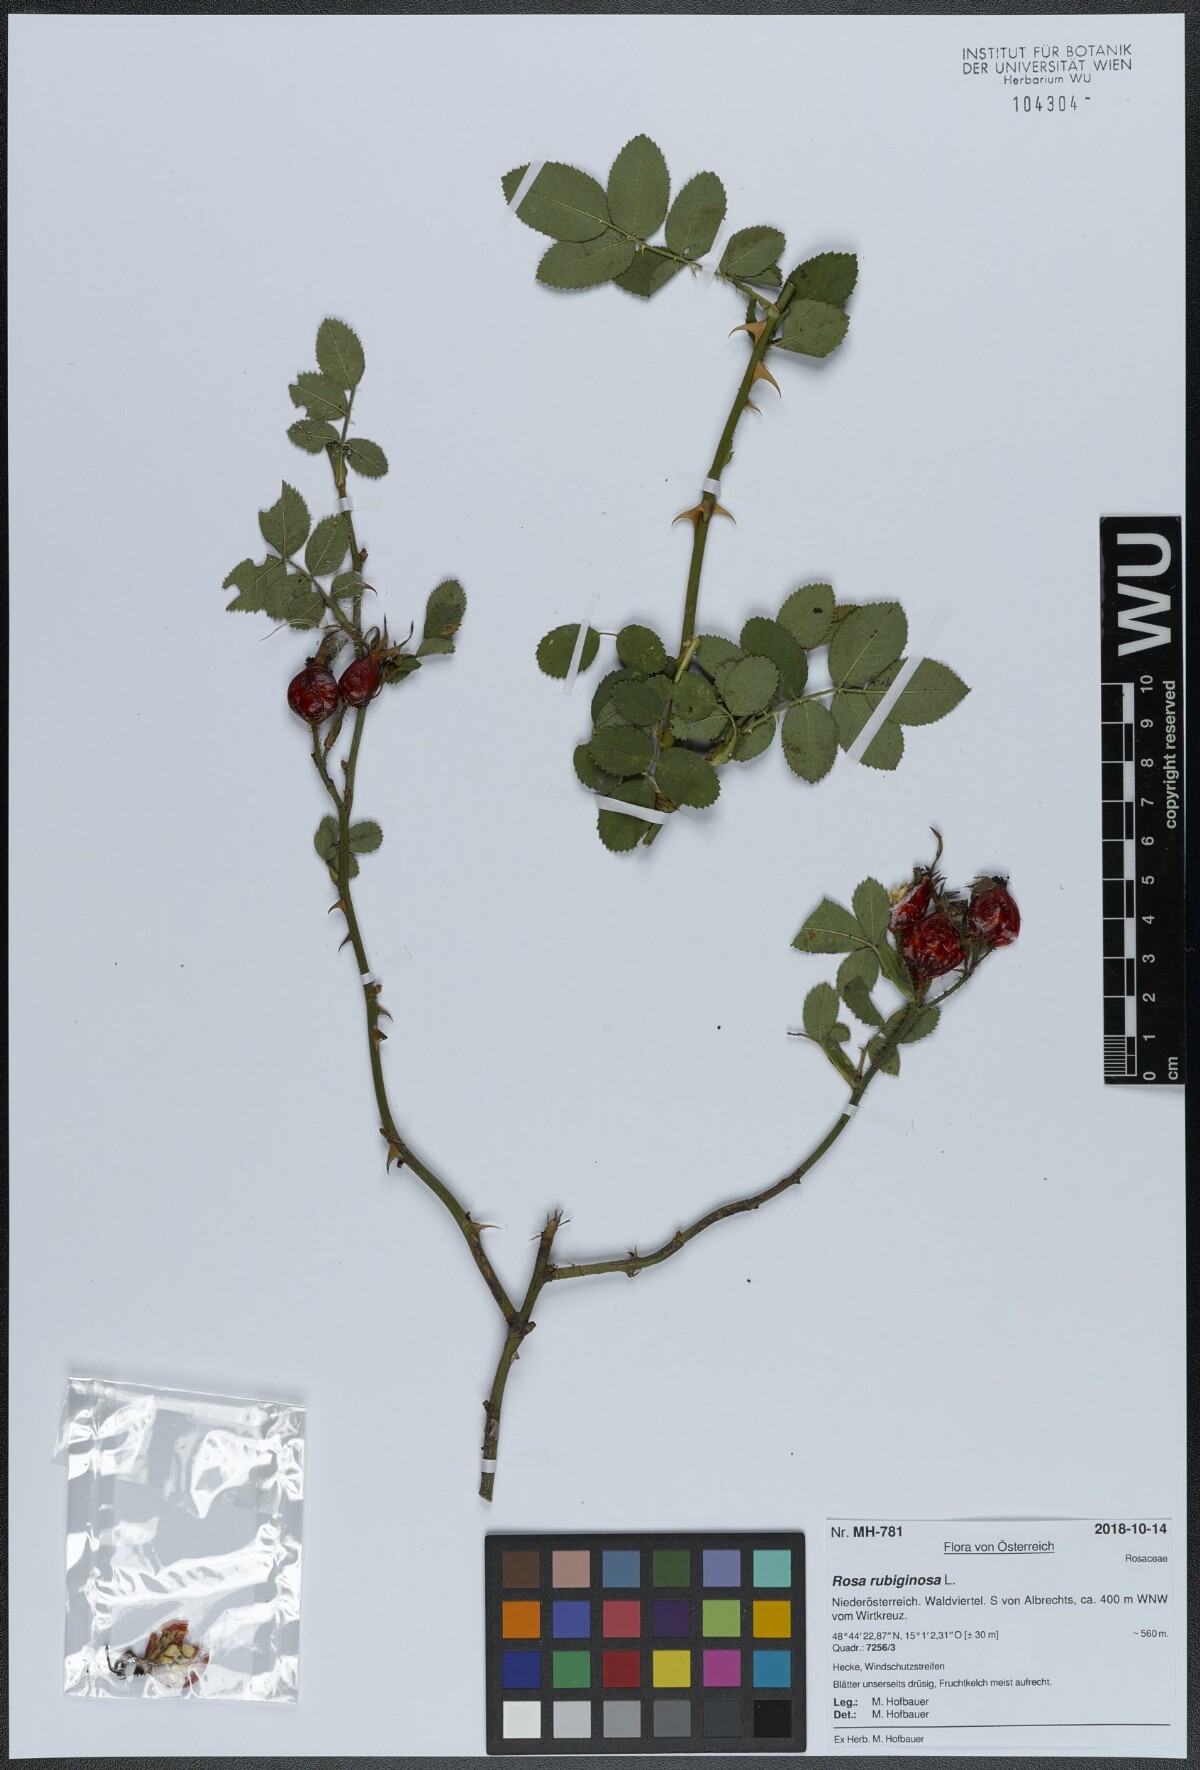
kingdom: Plantae
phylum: Tracheophyta
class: Magnoliopsida
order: Rosales
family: Rosaceae
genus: Rosa
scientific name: Rosa rubiginosa
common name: Sweet-briar
